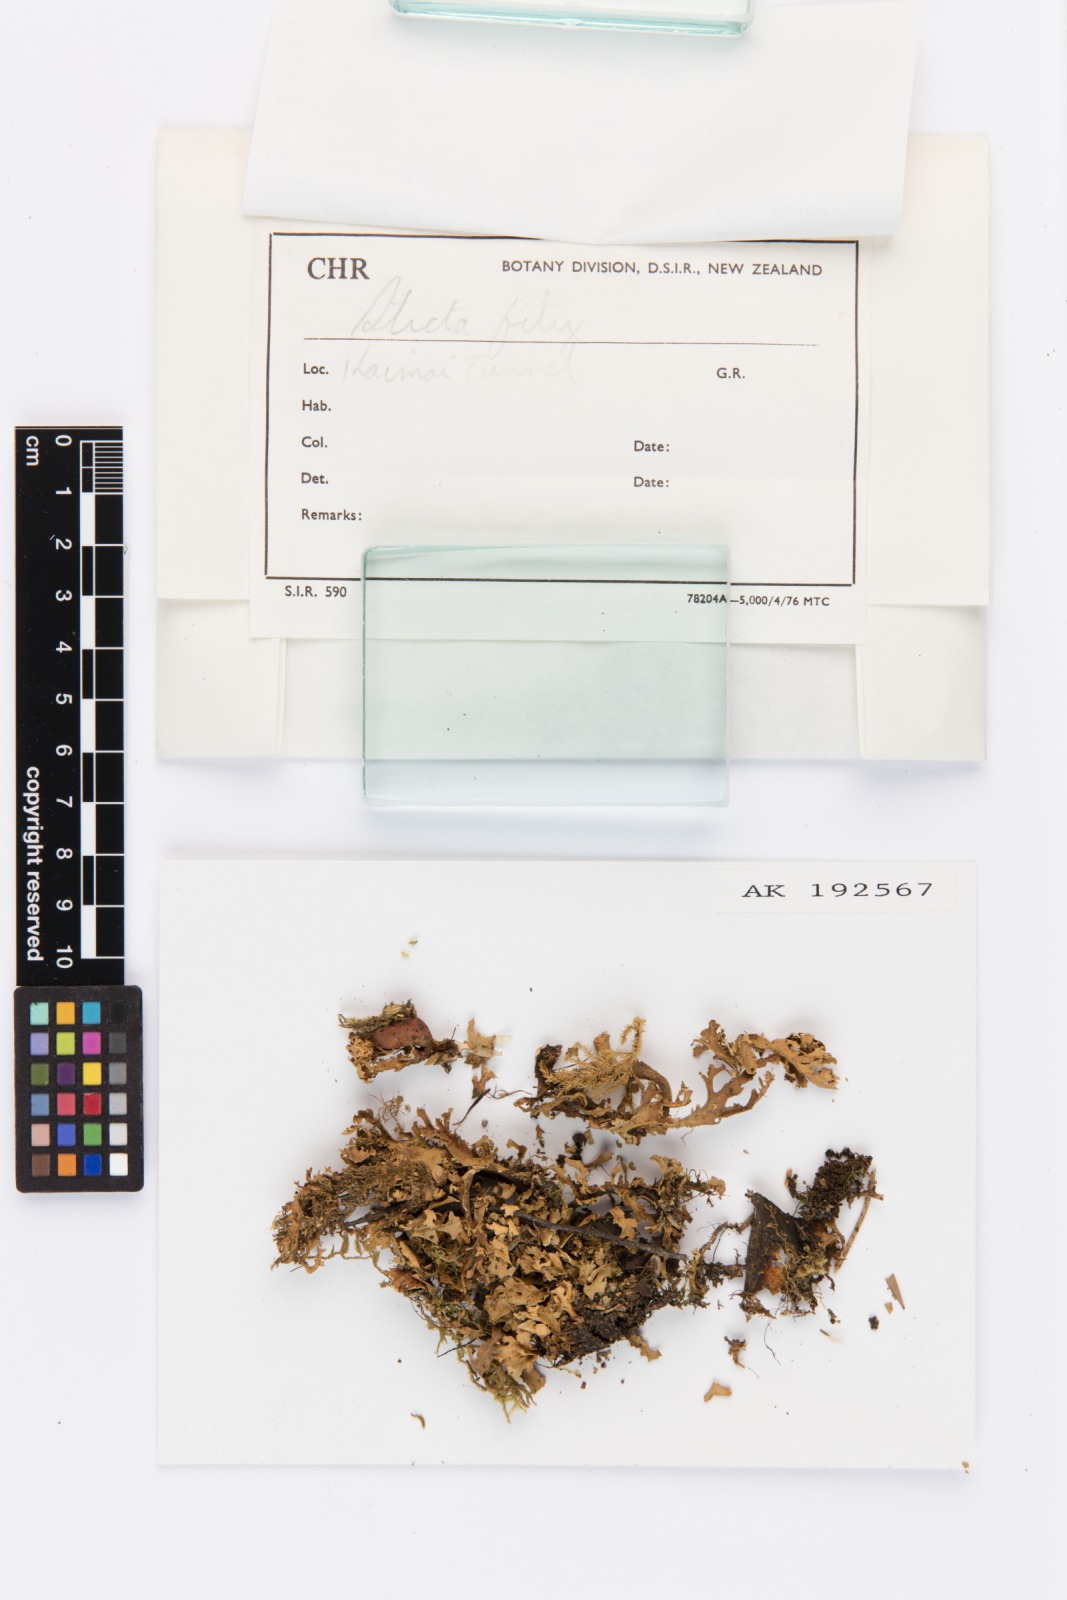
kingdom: Fungi
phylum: Ascomycota
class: Lecanoromycetes
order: Peltigerales
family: Lobariaceae
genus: Sticta
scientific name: Sticta filix
